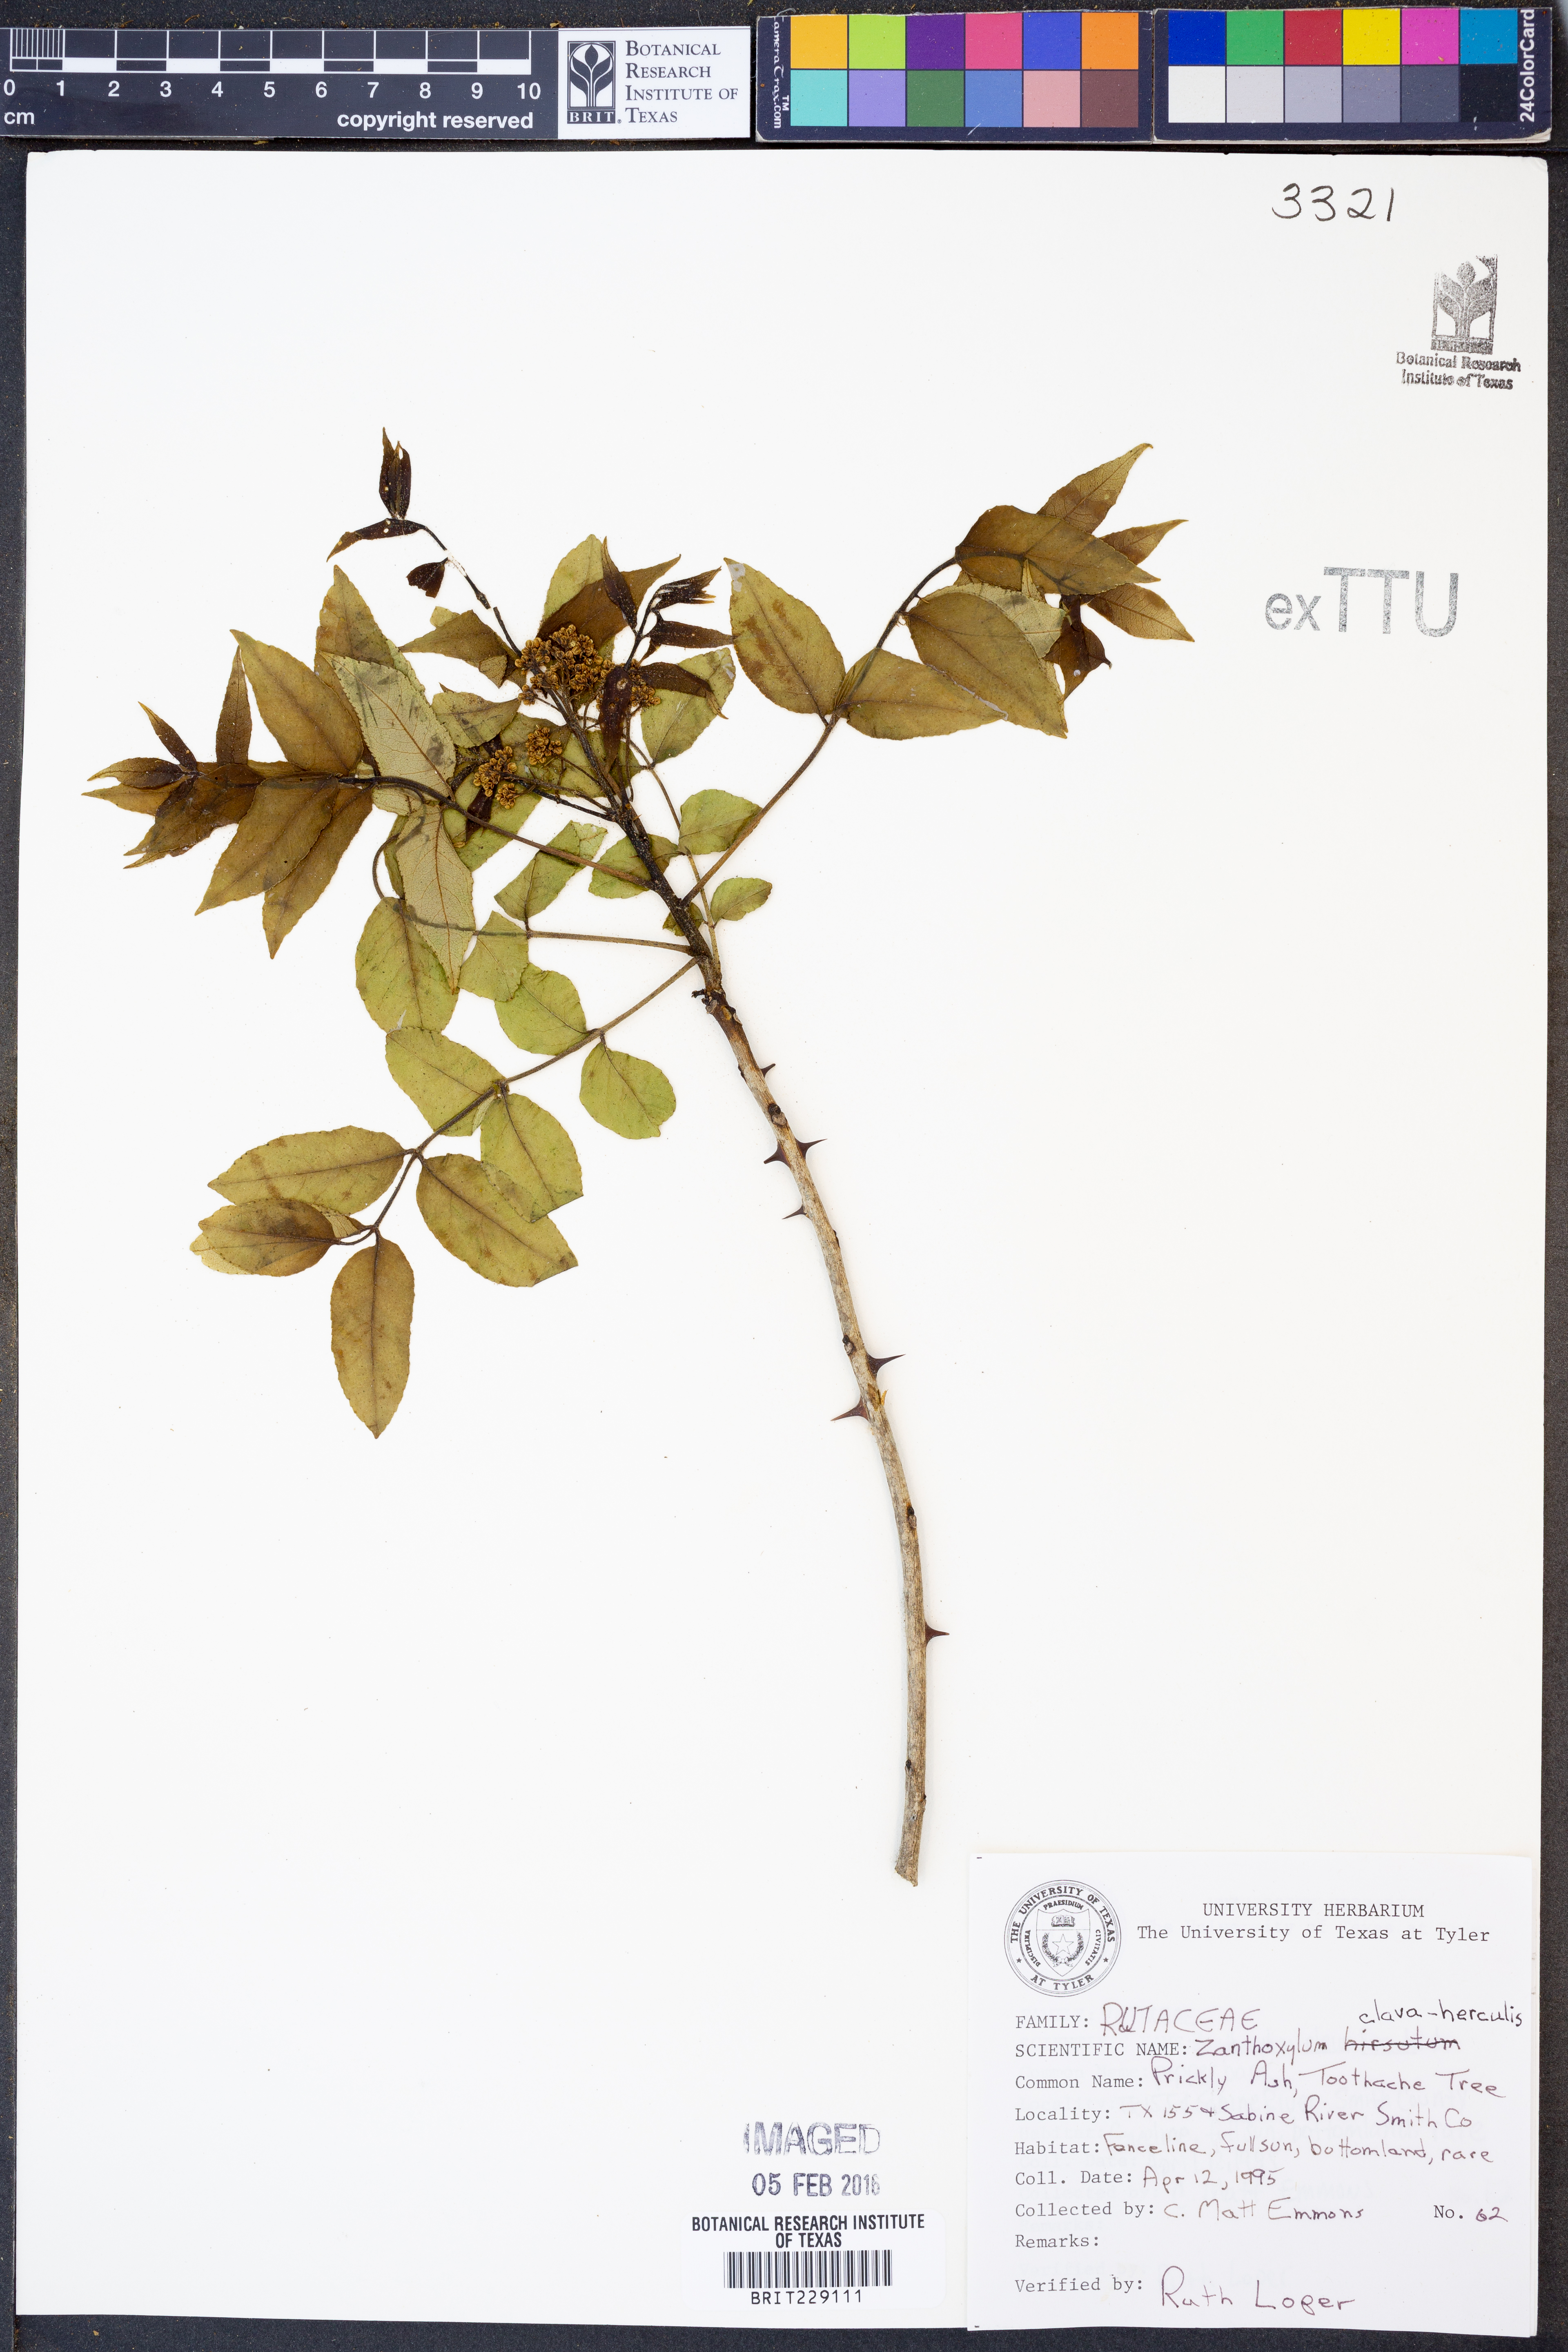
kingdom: Plantae
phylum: Tracheophyta
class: Magnoliopsida
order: Sapindales
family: Rutaceae
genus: Zanthoxylum
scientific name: Zanthoxylum avicennae
